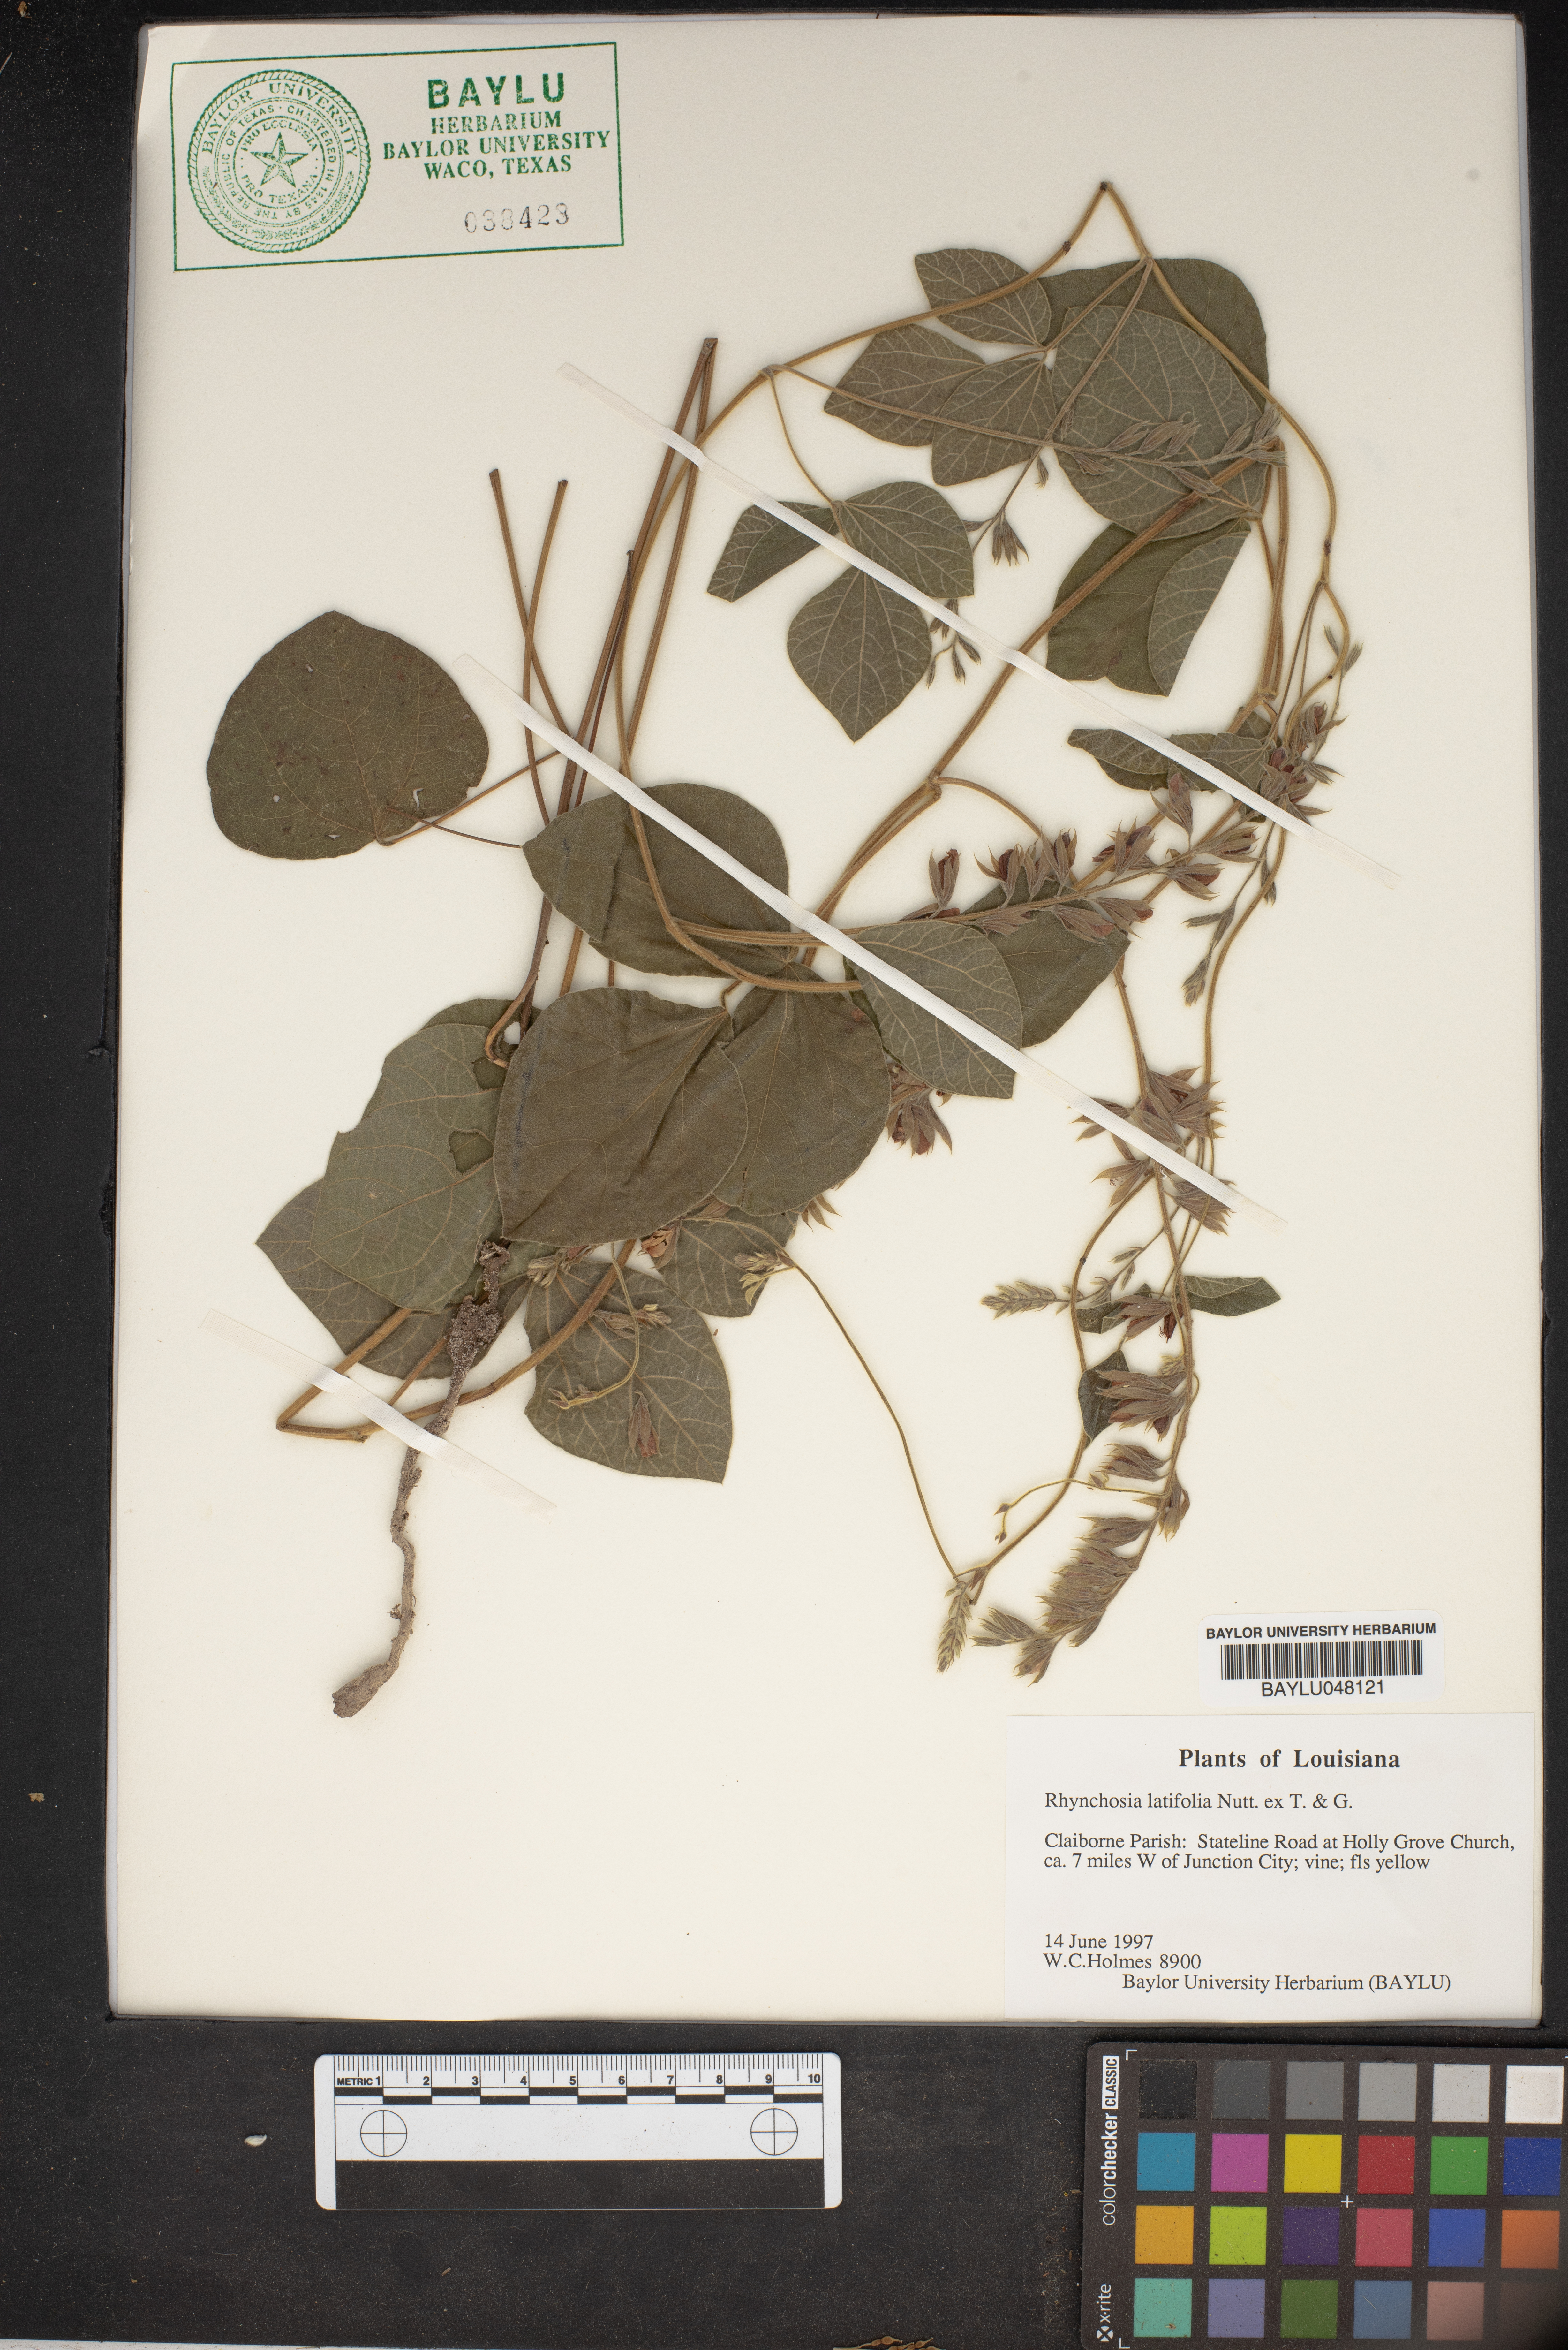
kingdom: Plantae
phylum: Tracheophyta
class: Magnoliopsida
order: Fabales
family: Fabaceae
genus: Rhynchosia
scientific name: Rhynchosia latifolia
